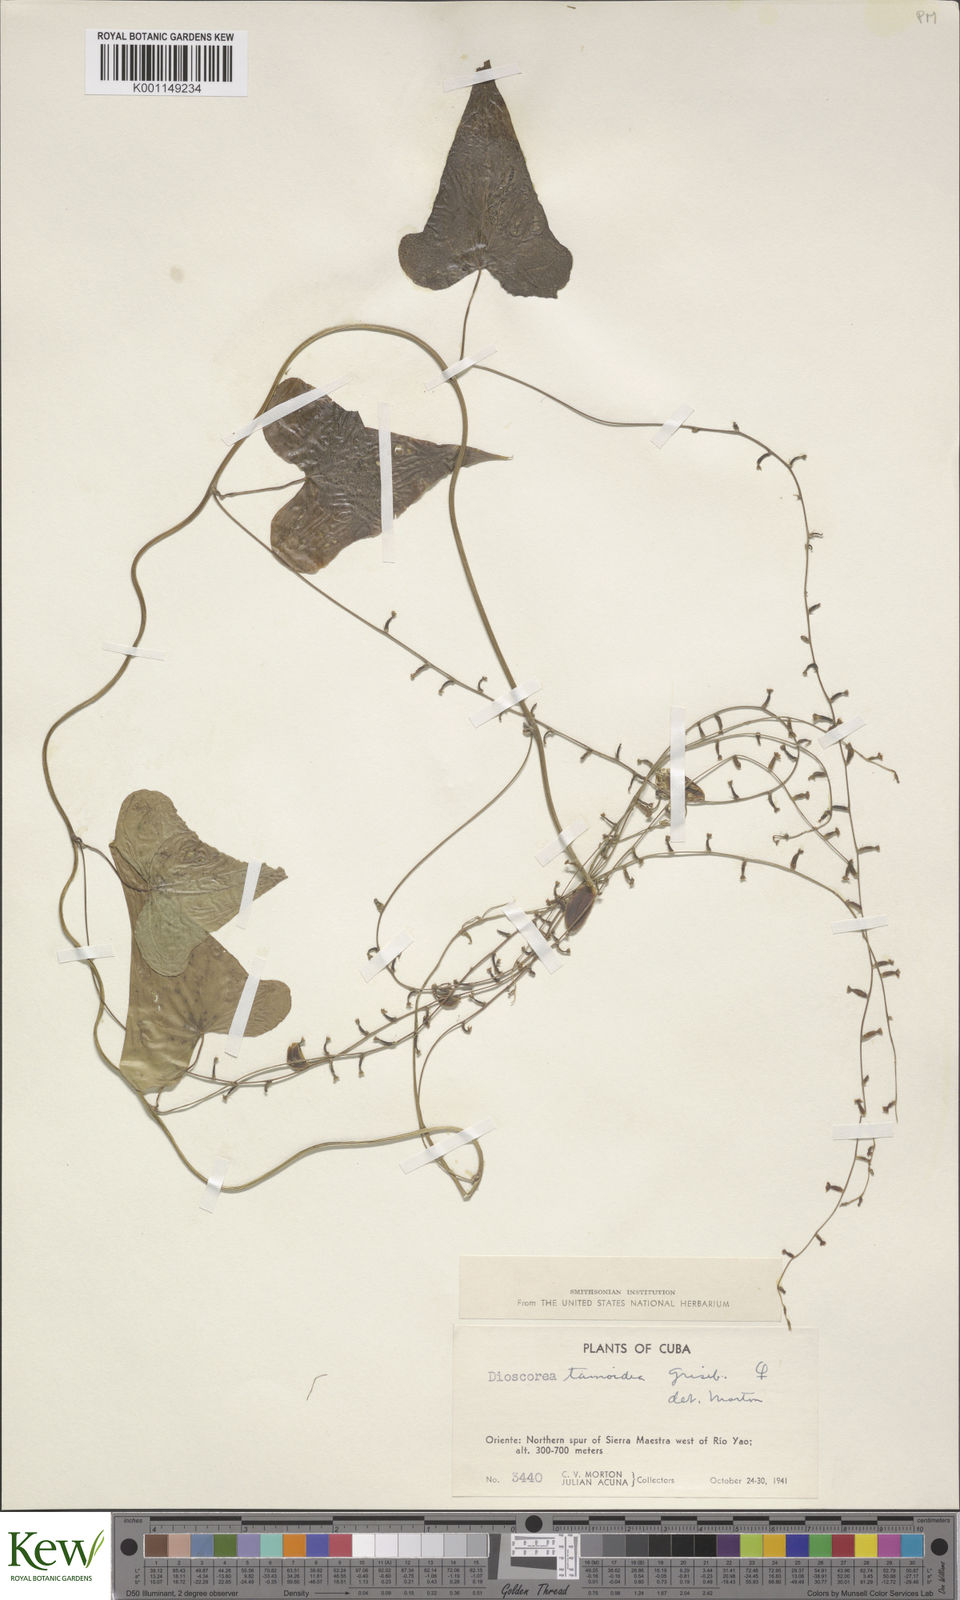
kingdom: Plantae
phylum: Tracheophyta
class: Liliopsida
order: Dioscoreales
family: Dioscoreaceae
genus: Dioscorea
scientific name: Dioscorea tamoidea
